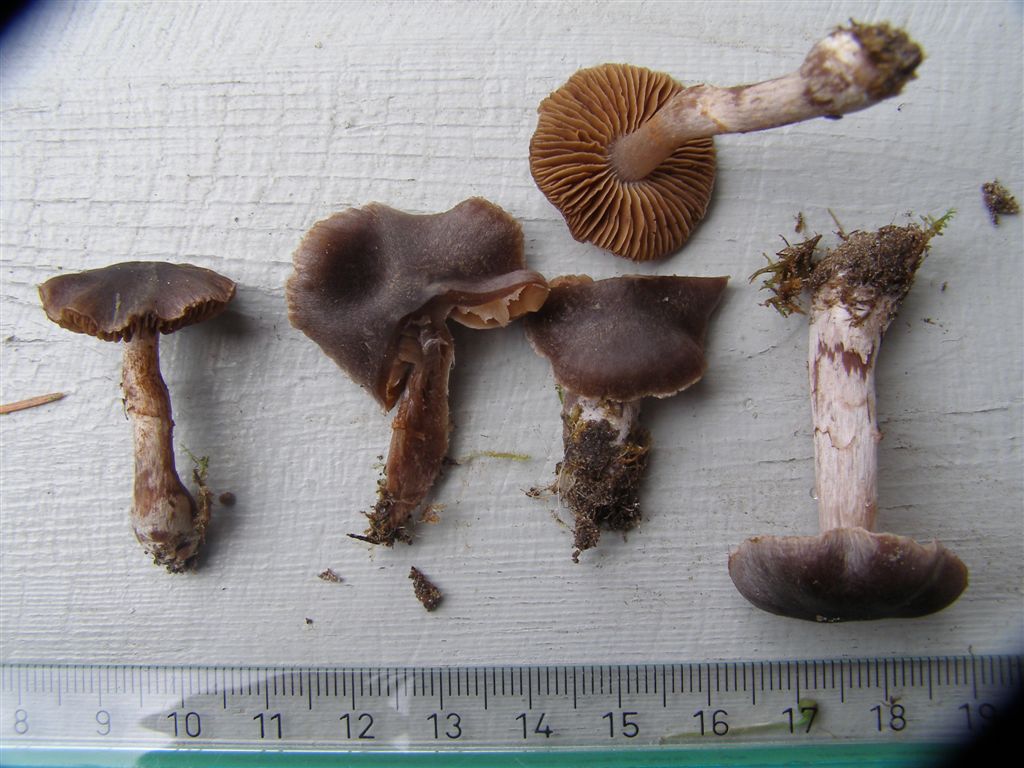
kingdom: Fungi
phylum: Basidiomycota
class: Agaricomycetes
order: Agaricales
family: Cortinariaceae
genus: Cortinarius
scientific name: Cortinarius vernus
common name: sommer-slørhat
